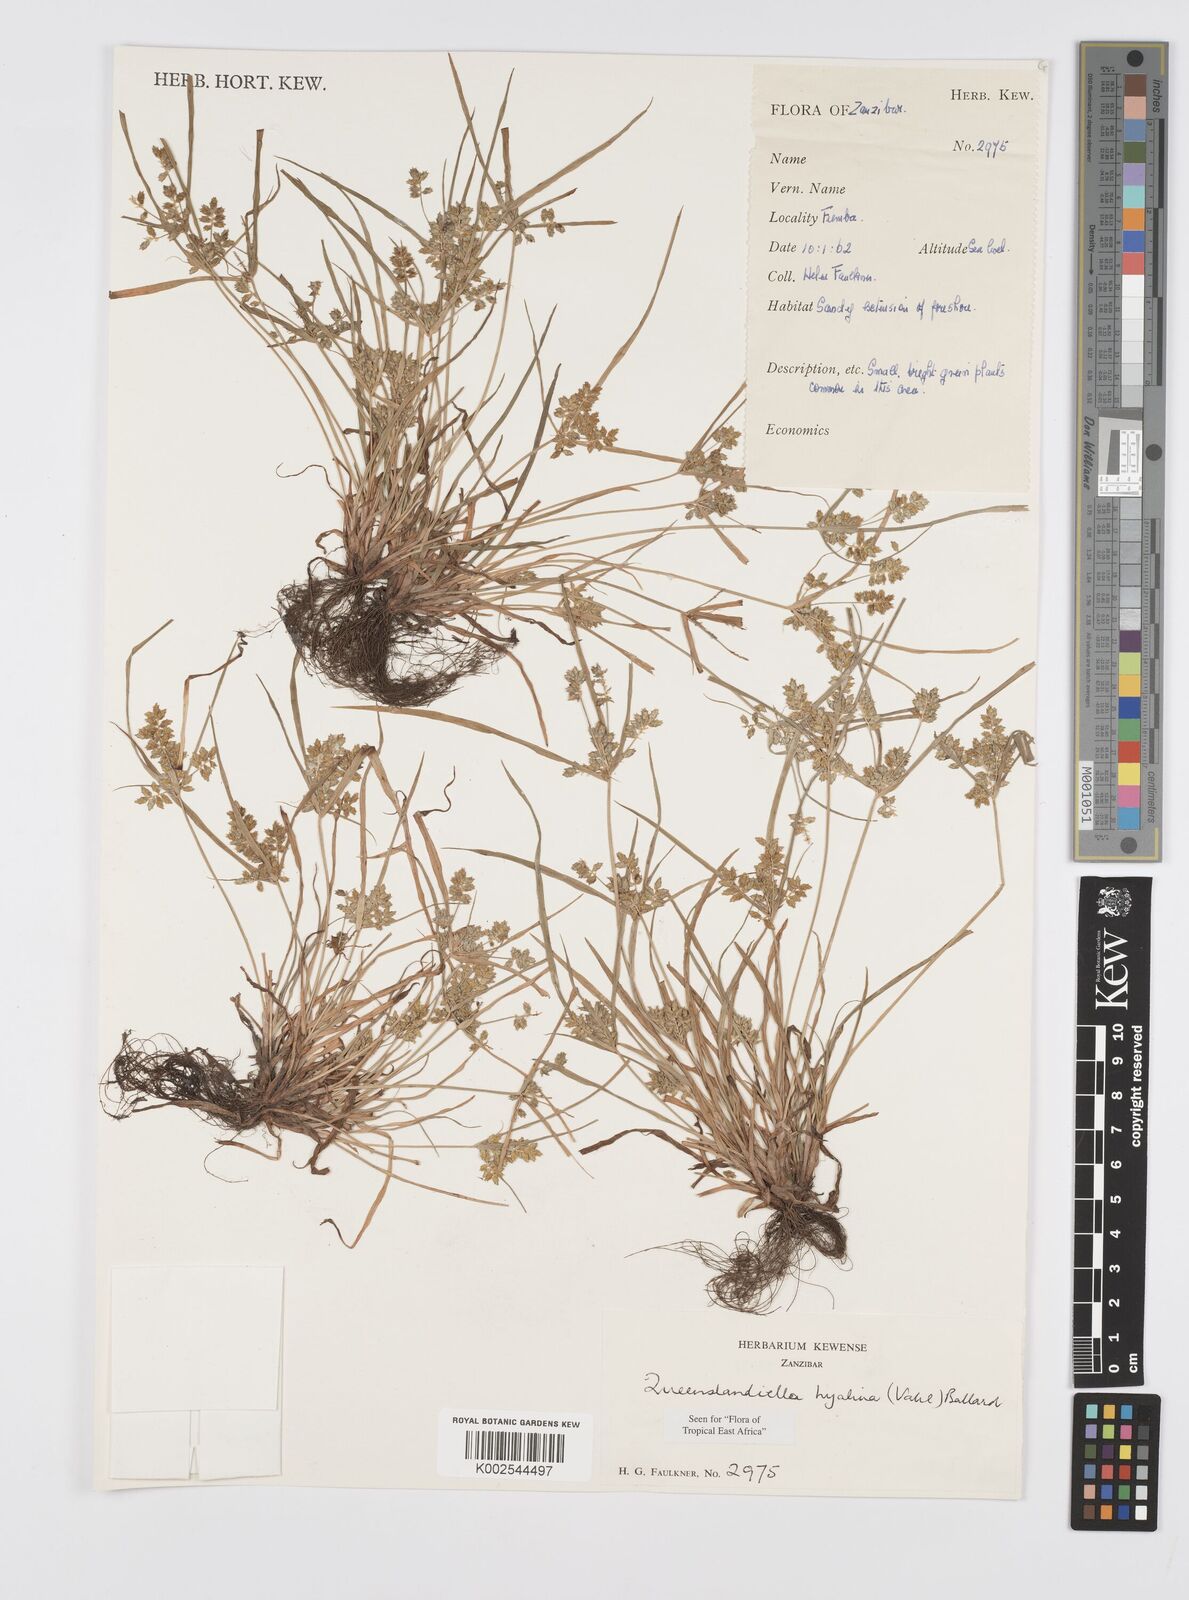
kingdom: Plantae
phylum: Tracheophyta
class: Liliopsida
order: Poales
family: Cyperaceae
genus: Cyperus
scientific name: Cyperus hyalinus
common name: Queensland sedge
